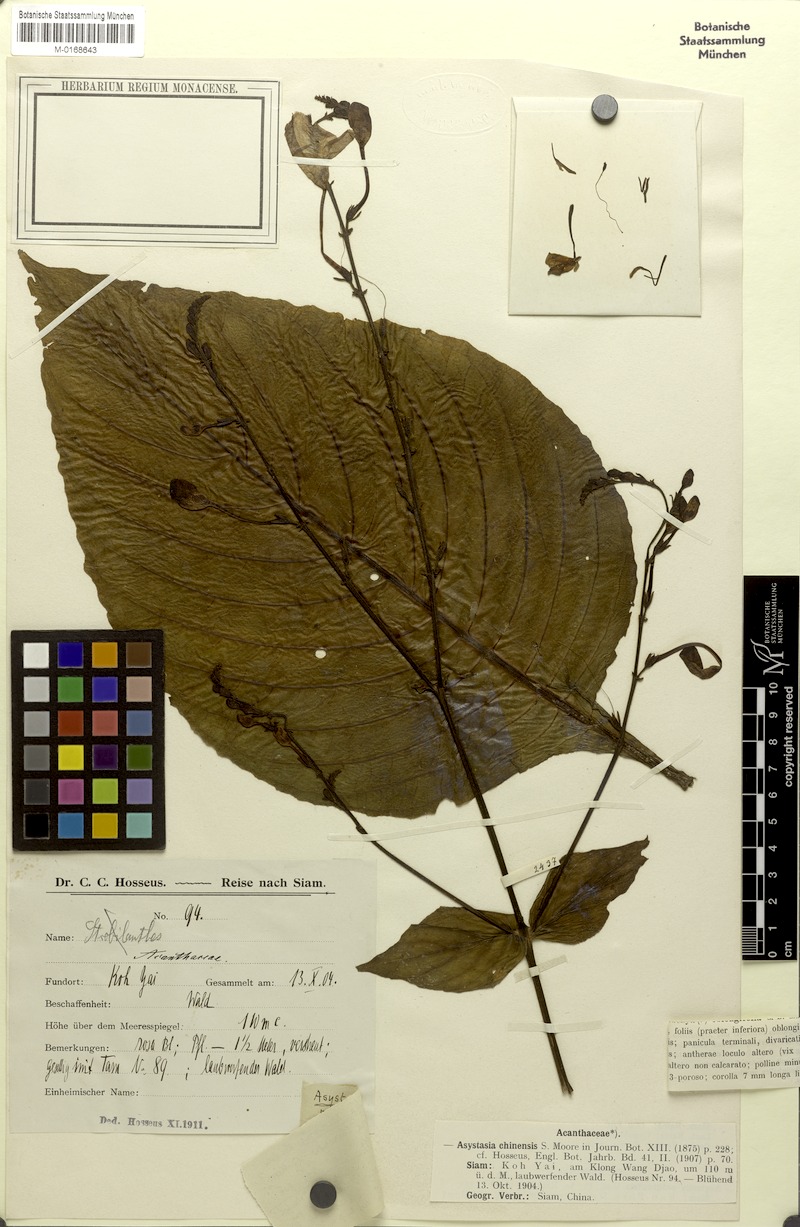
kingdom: Plantae
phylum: Tracheophyta
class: Magnoliopsida
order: Lamiales
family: Acanthaceae
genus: Mackaya
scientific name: Mackaya neesiana
